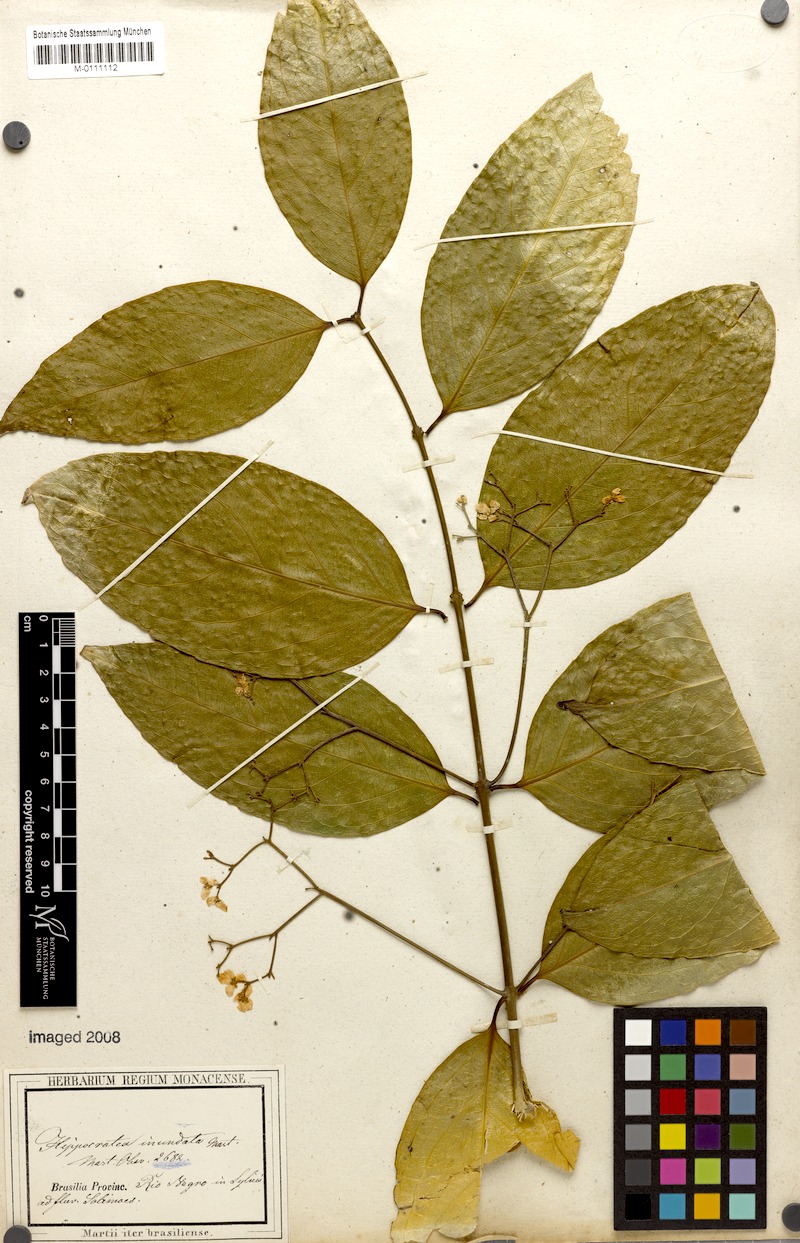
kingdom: Plantae
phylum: Tracheophyta
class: Magnoliopsida
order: Celastrales
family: Celastraceae
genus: Cuervea
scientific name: Cuervea kappleriana
